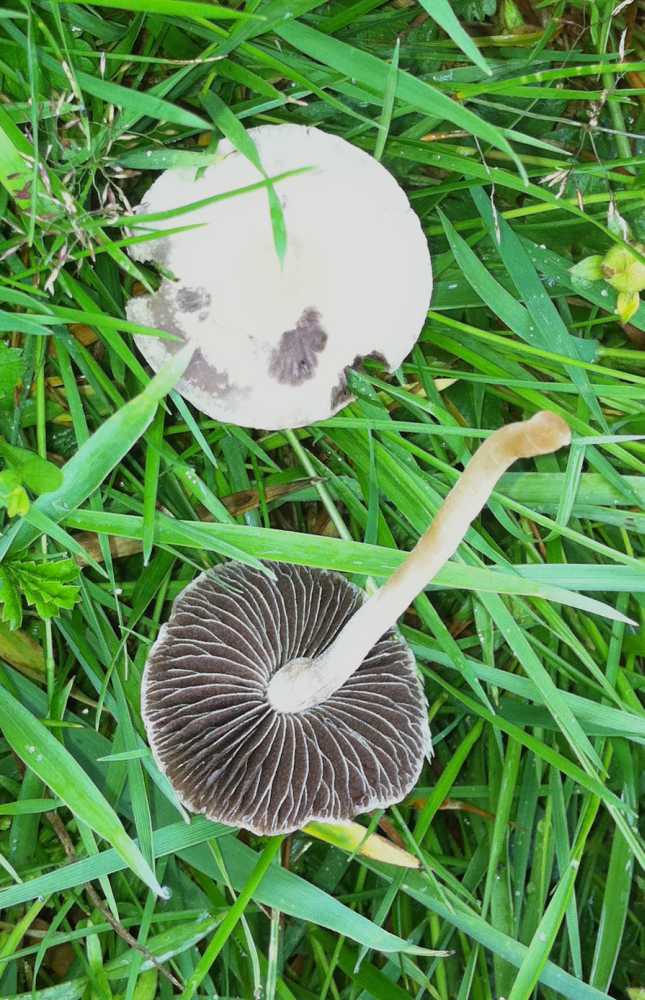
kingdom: Fungi
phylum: Basidiomycota
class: Agaricomycetes
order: Agaricales
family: Bolbitiaceae
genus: Panaeolus
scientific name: Panaeolus
